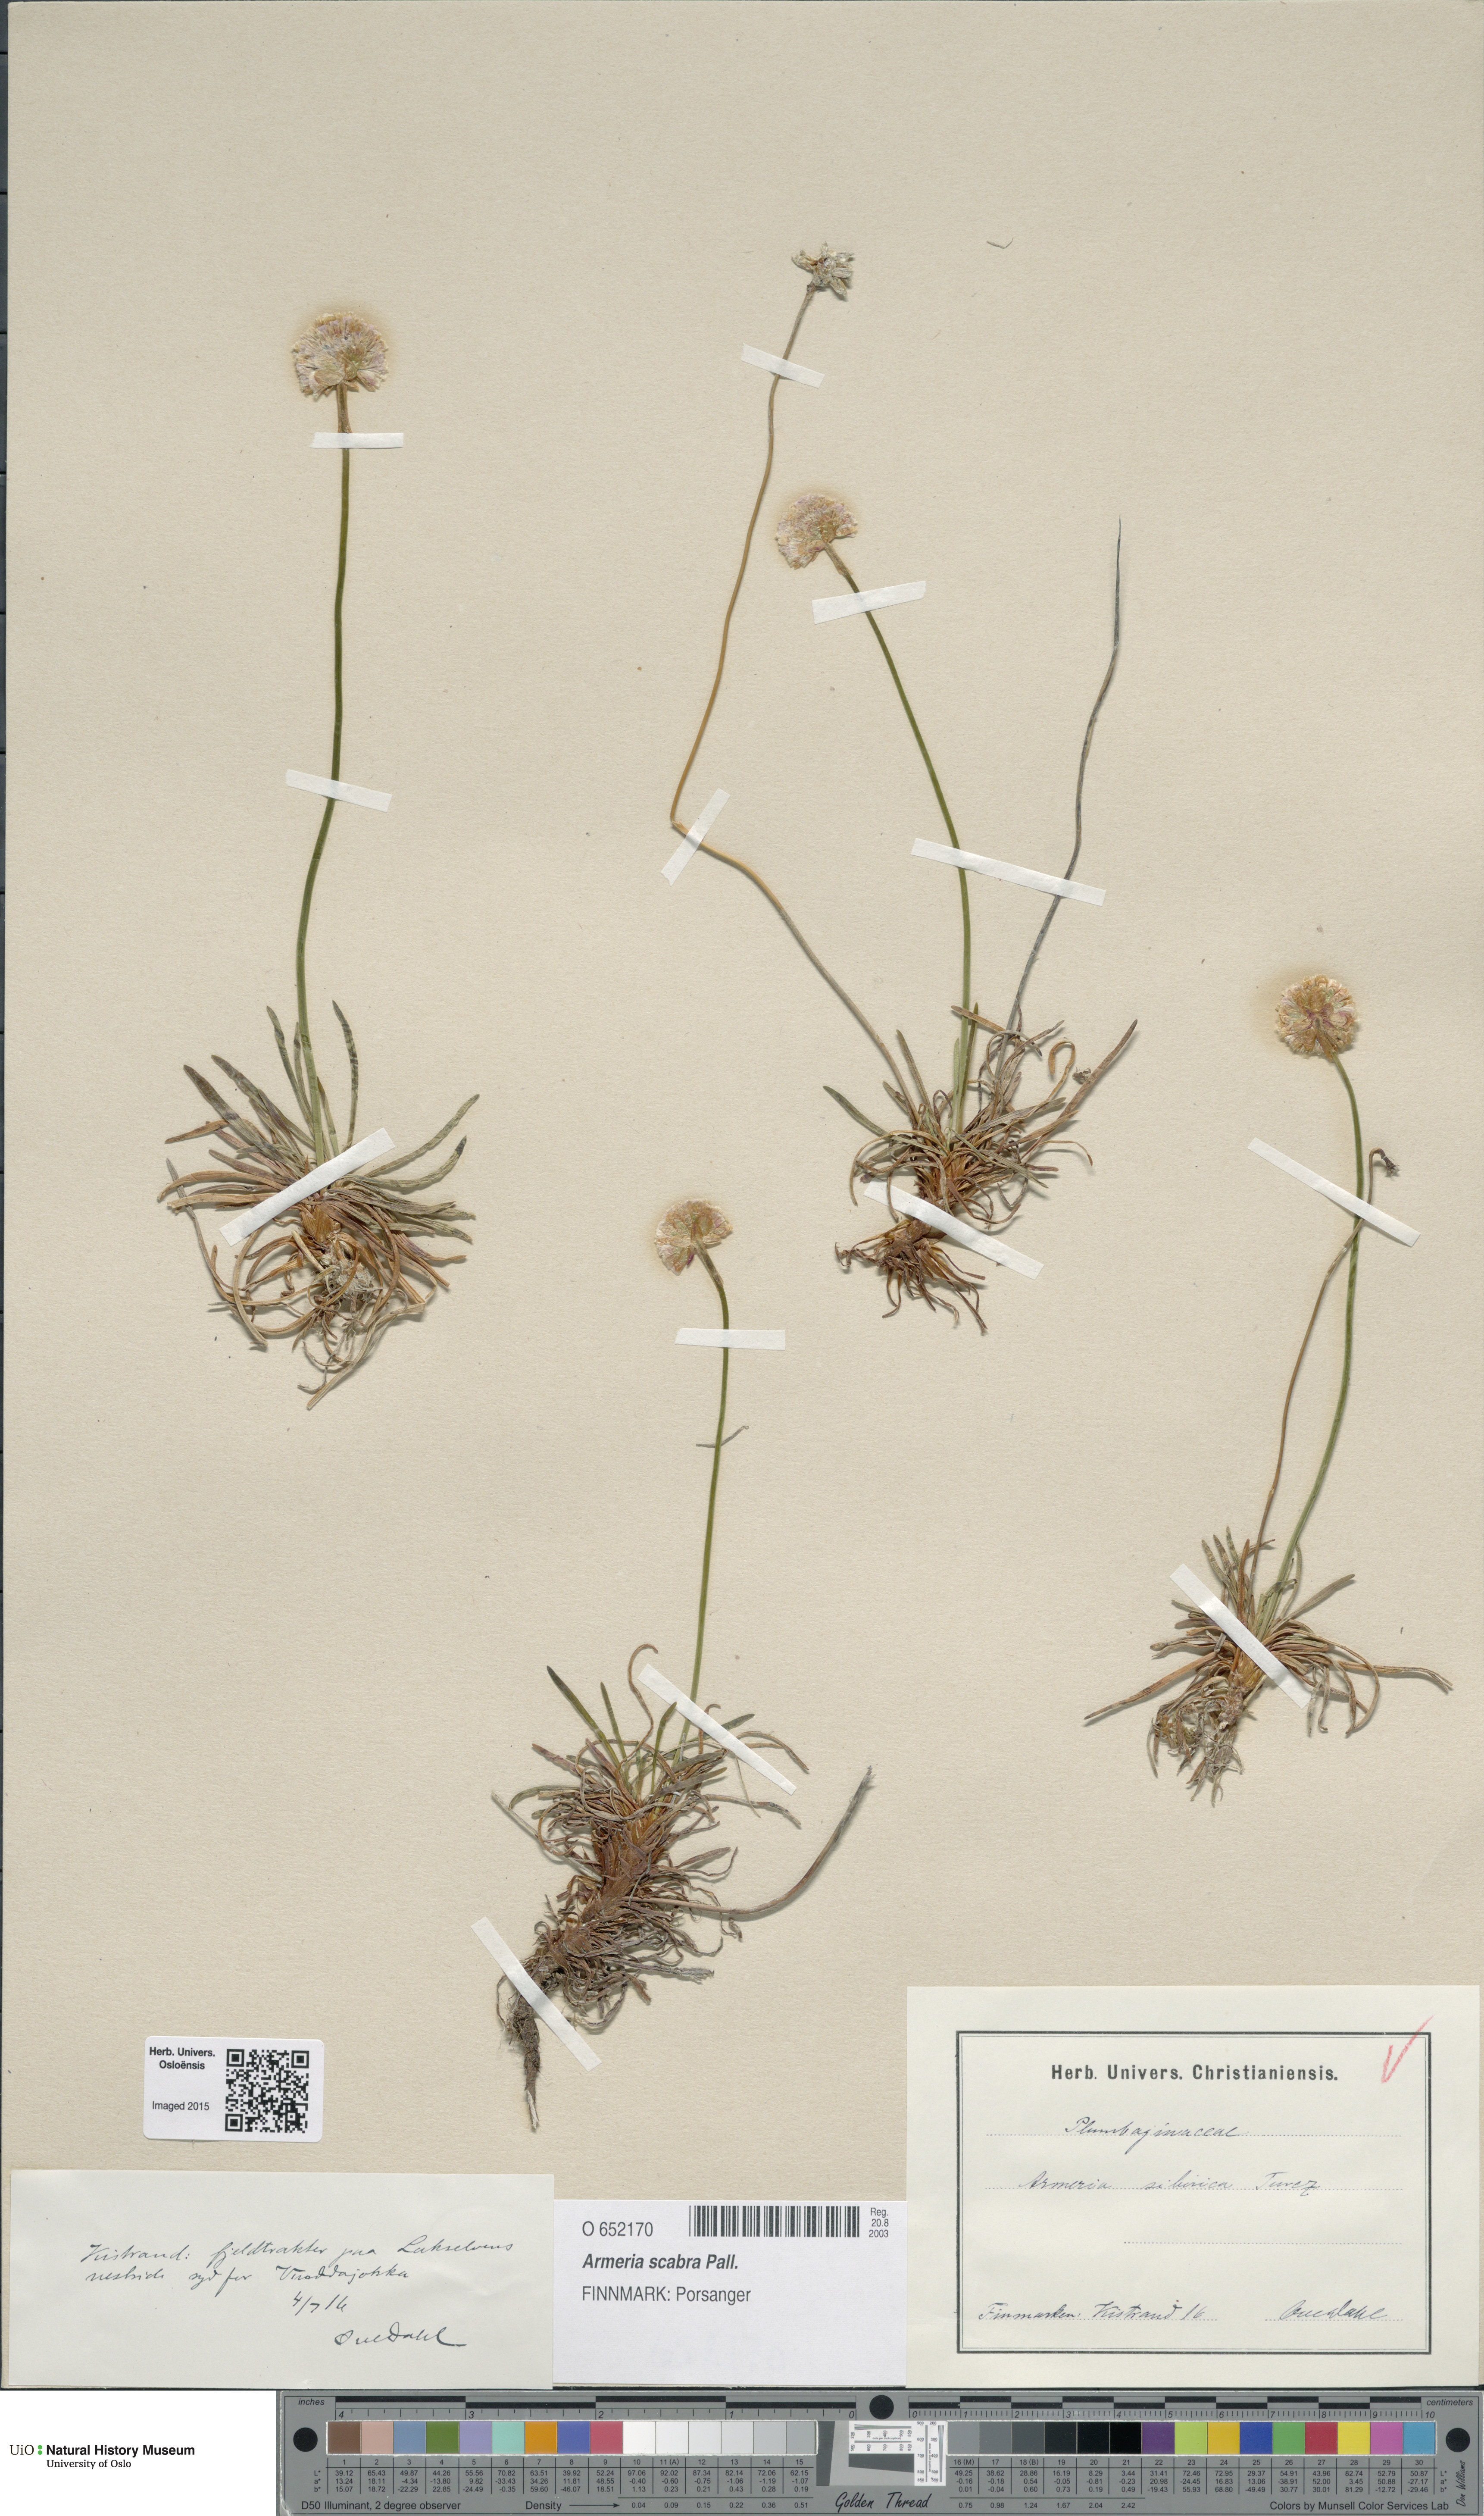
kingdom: Plantae
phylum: Tracheophyta
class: Magnoliopsida
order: Caryophyllales
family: Plumbaginaceae
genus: Armeria
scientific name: Armeria maritima
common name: Thrift
